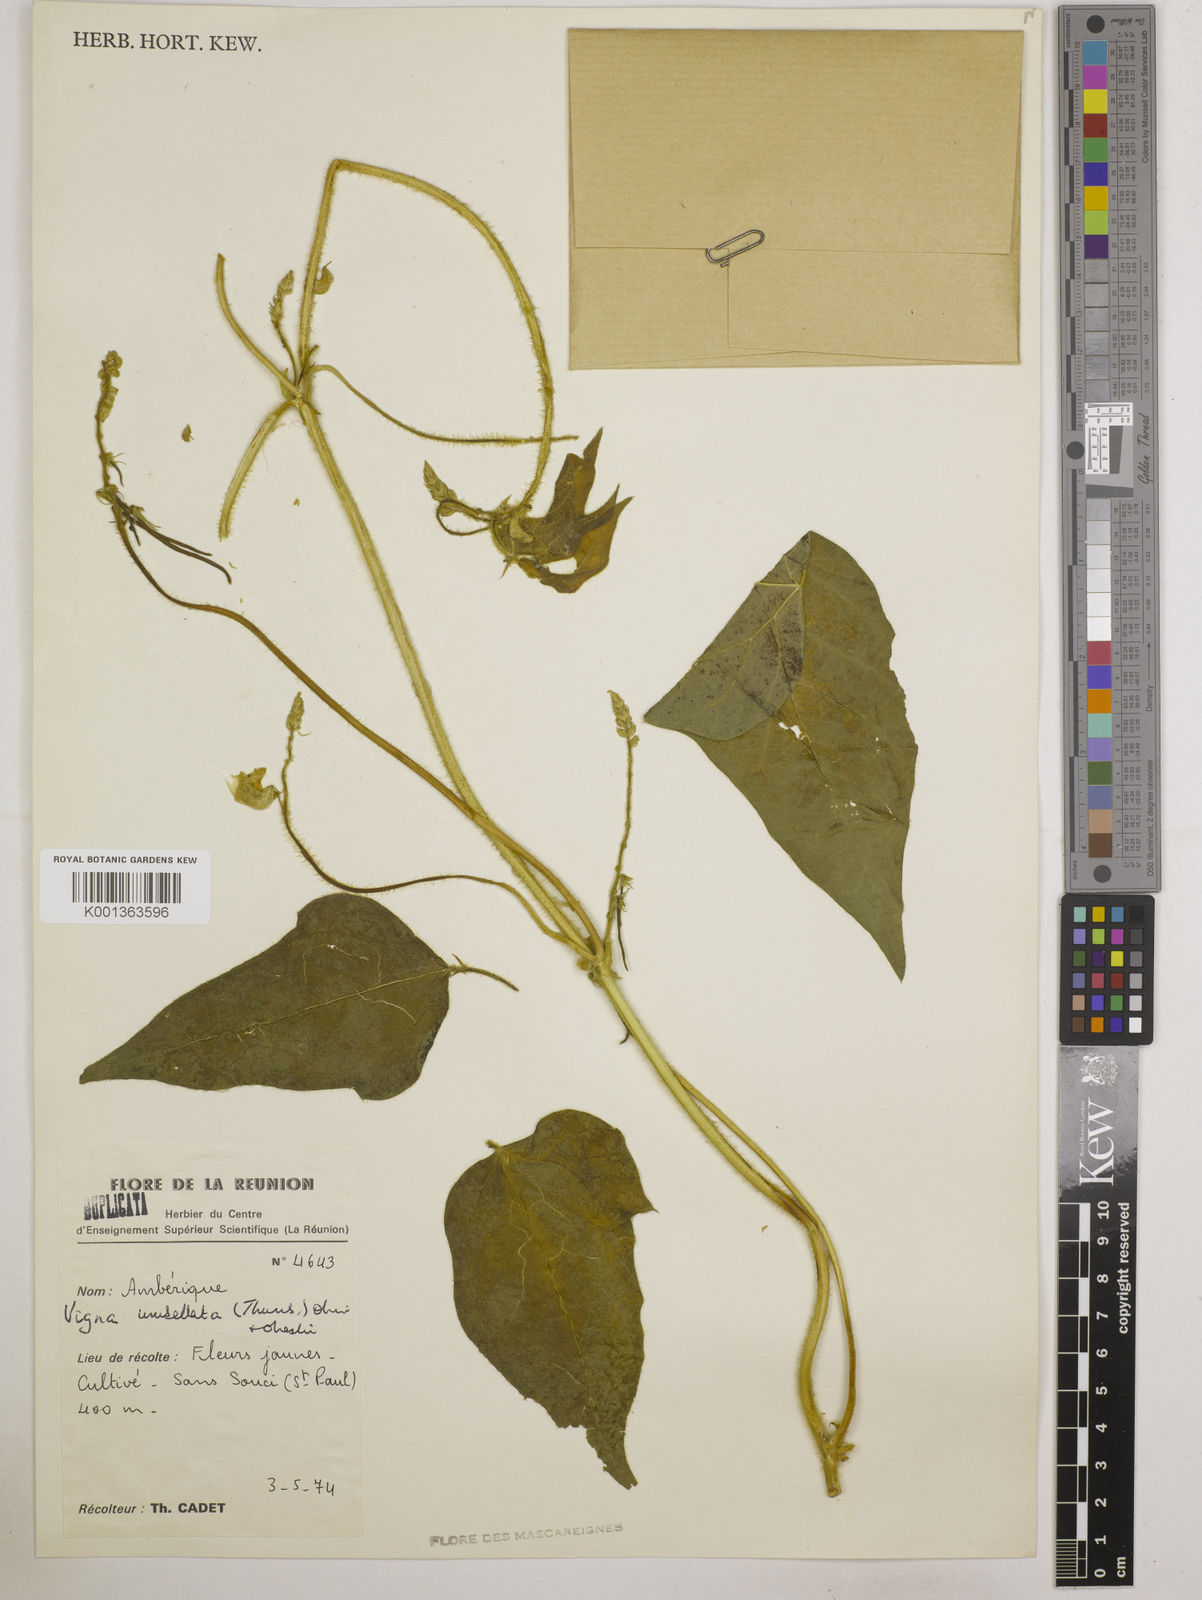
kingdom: Plantae
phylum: Tracheophyta
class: Magnoliopsida
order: Fabales
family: Fabaceae
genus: Vigna
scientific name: Vigna umbellata
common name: Oriental-bean
